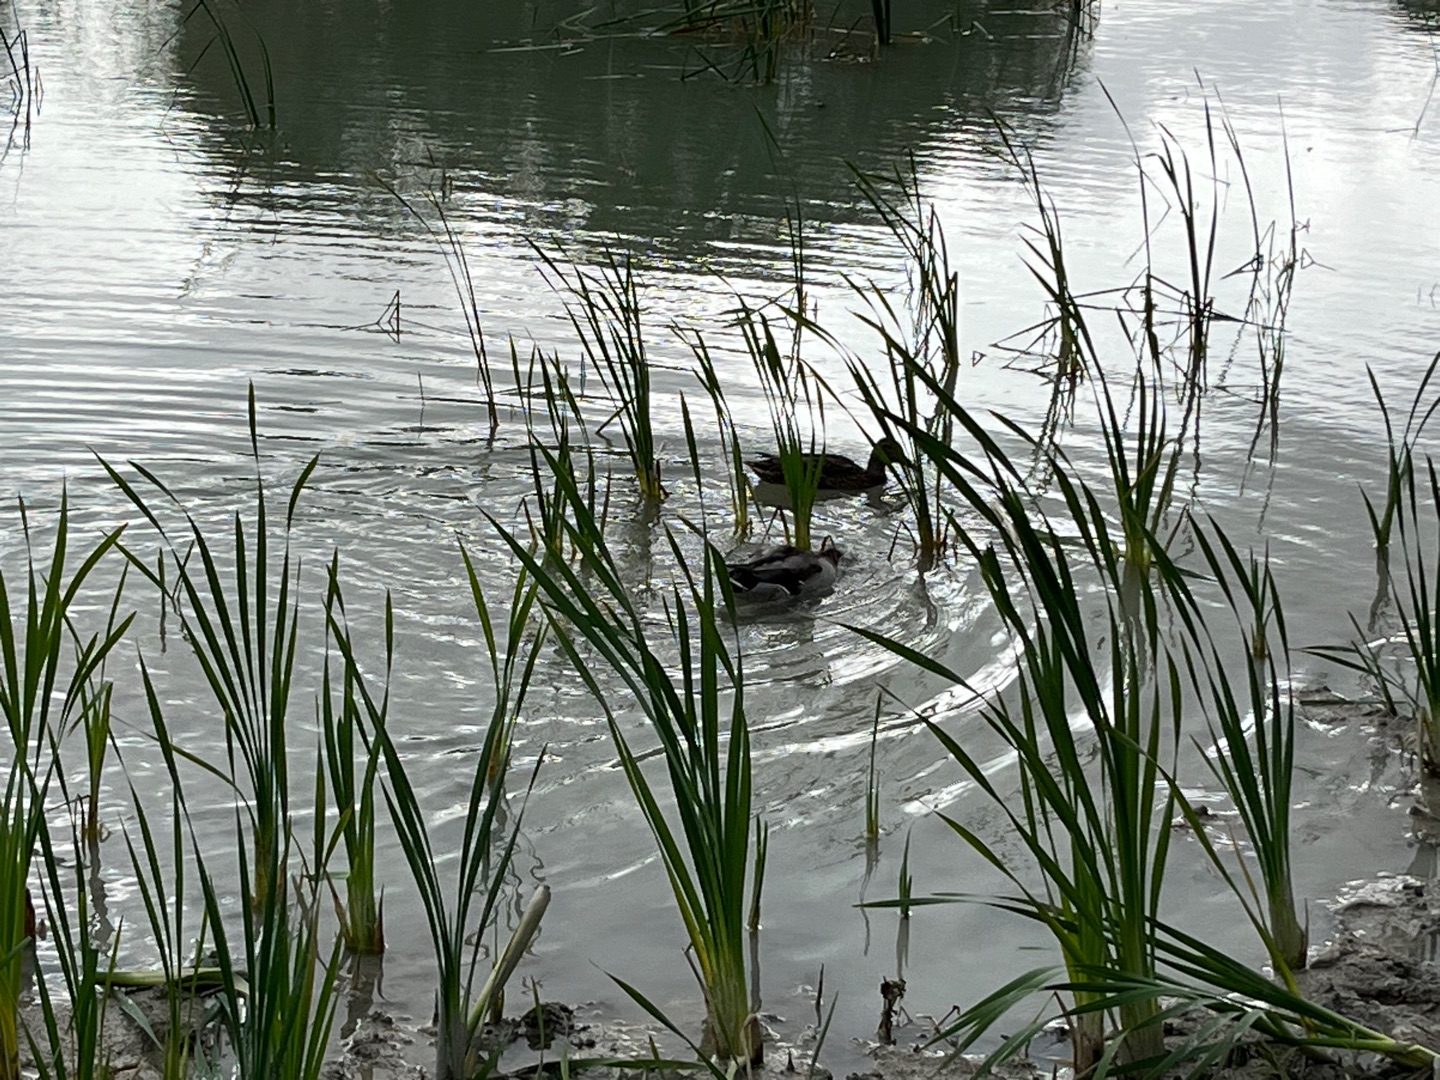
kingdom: Animalia
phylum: Chordata
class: Aves
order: Anseriformes
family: Anatidae
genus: Anas
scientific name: Anas platyrhynchos
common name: Gråand
